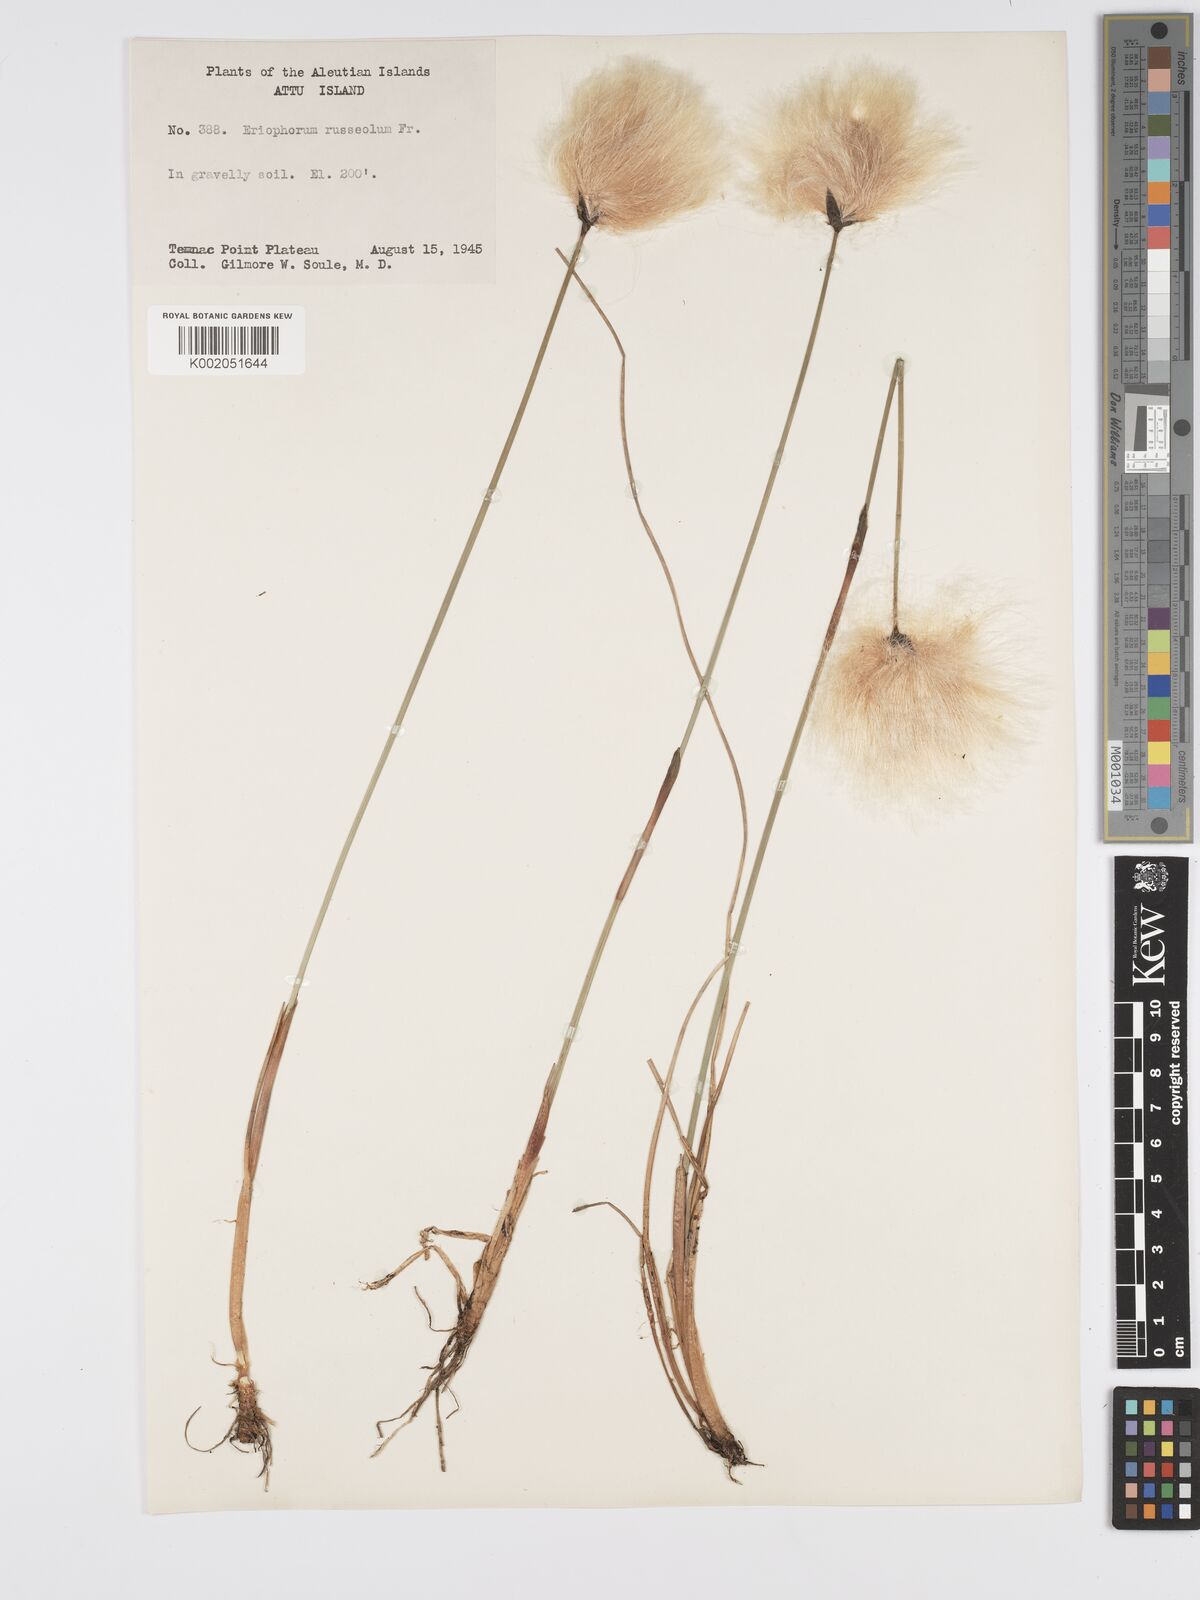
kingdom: Plantae
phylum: Tracheophyta
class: Liliopsida
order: Poales
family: Cyperaceae
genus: Eriophorum
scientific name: Eriophorum chamissonis
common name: Chamisso's cottongrass
